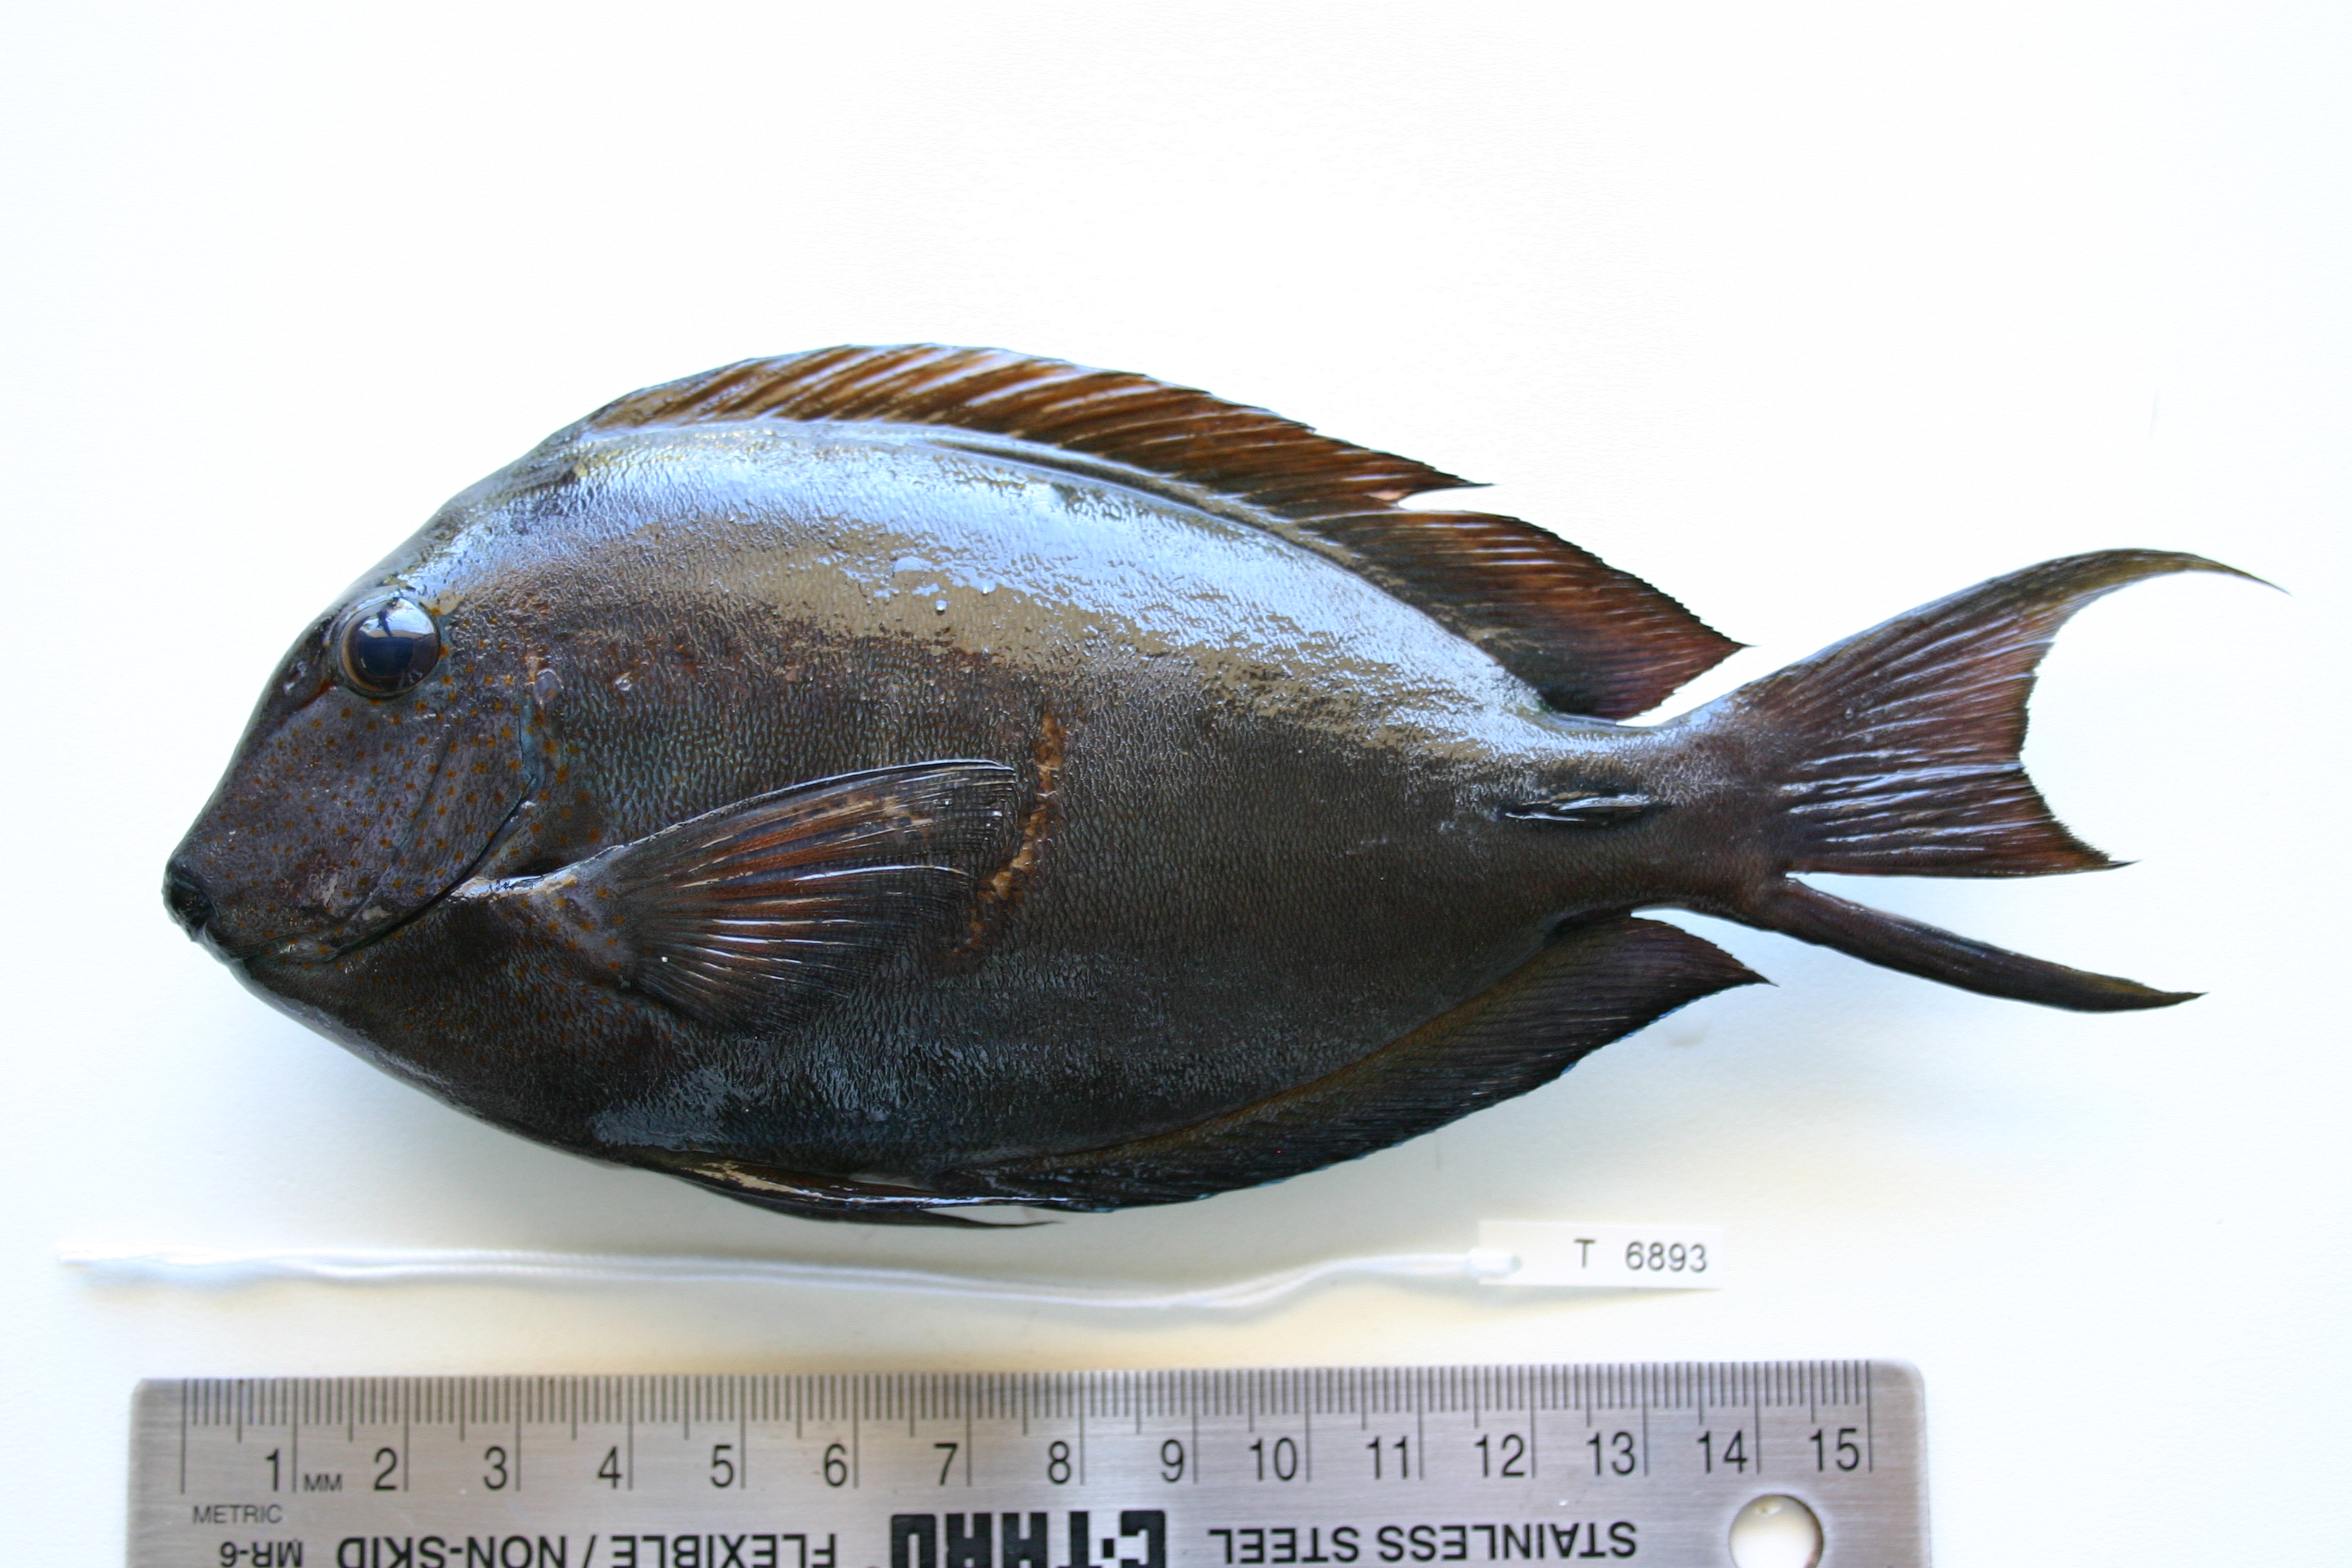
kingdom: Animalia
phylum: Chordata
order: Perciformes
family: Acanthuridae
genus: Acanthurus
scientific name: Acanthurus nigrofuscus
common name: Blackspot surgeonfish
